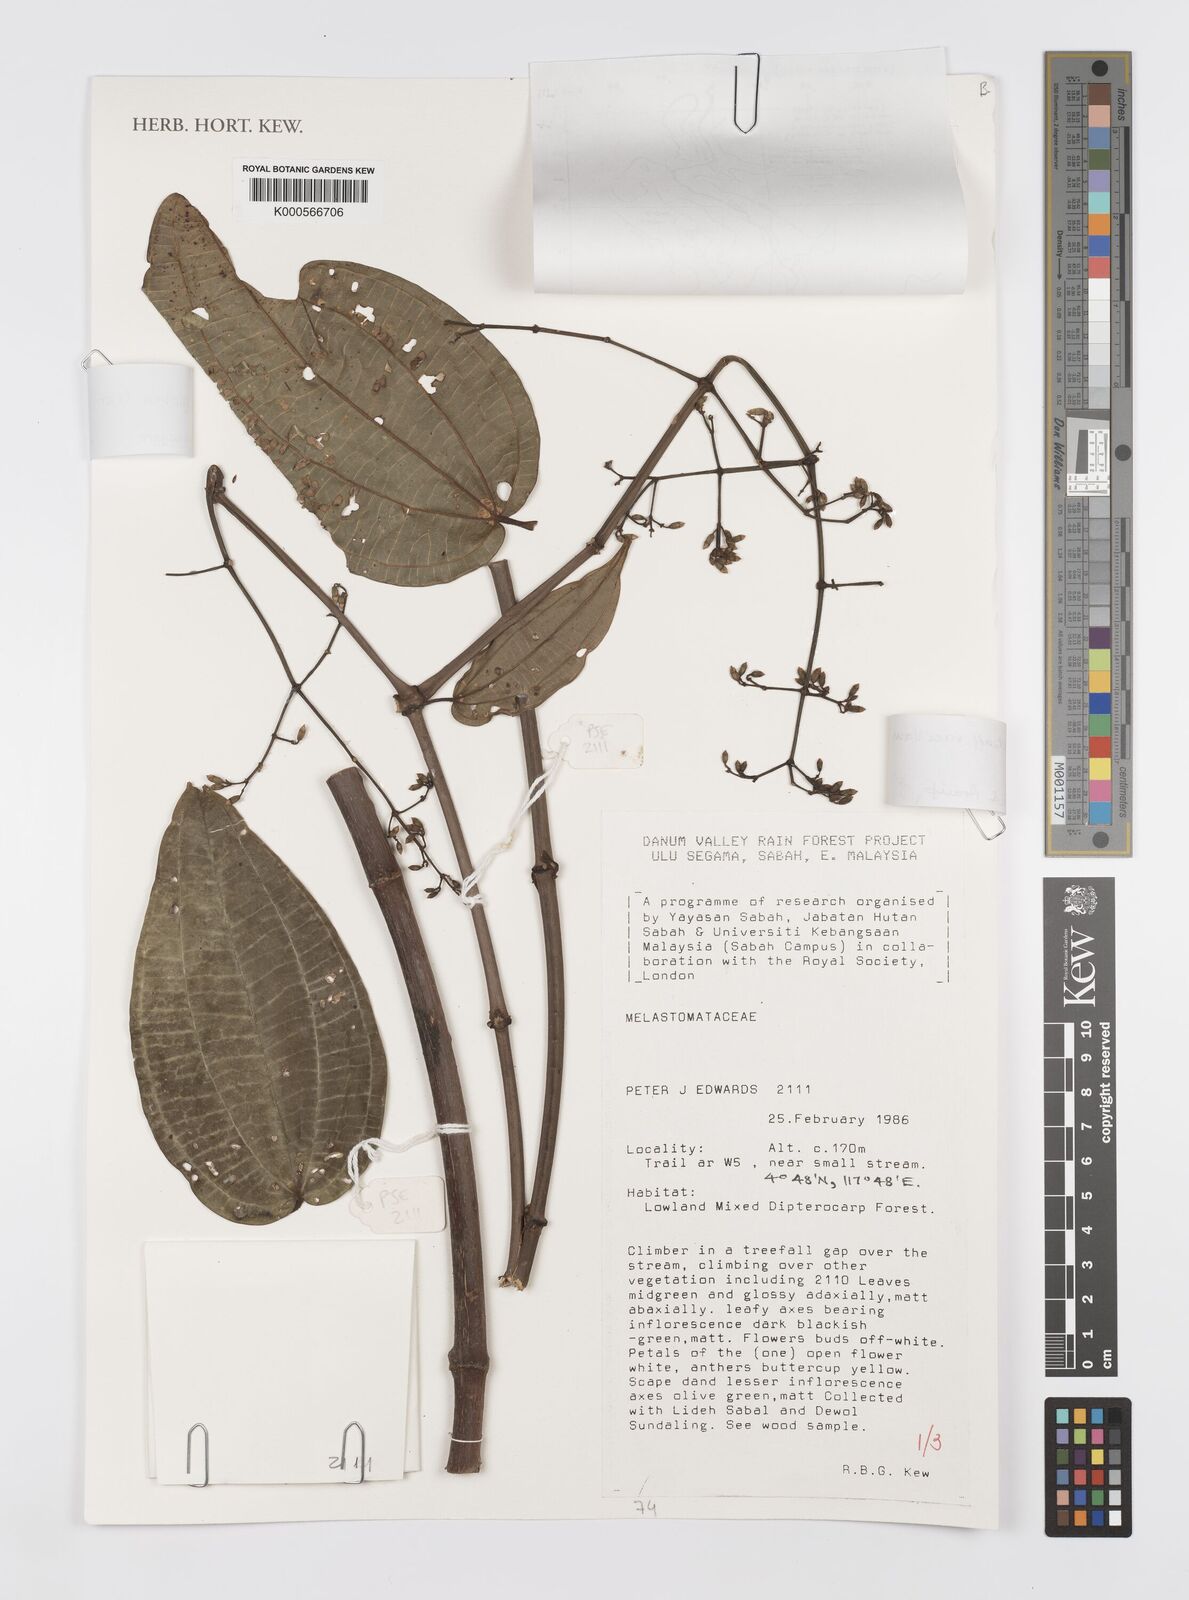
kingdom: Plantae
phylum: Tracheophyta
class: Magnoliopsida
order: Myrtales
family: Melastomataceae
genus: Dalenia
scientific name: Dalenia glabra
